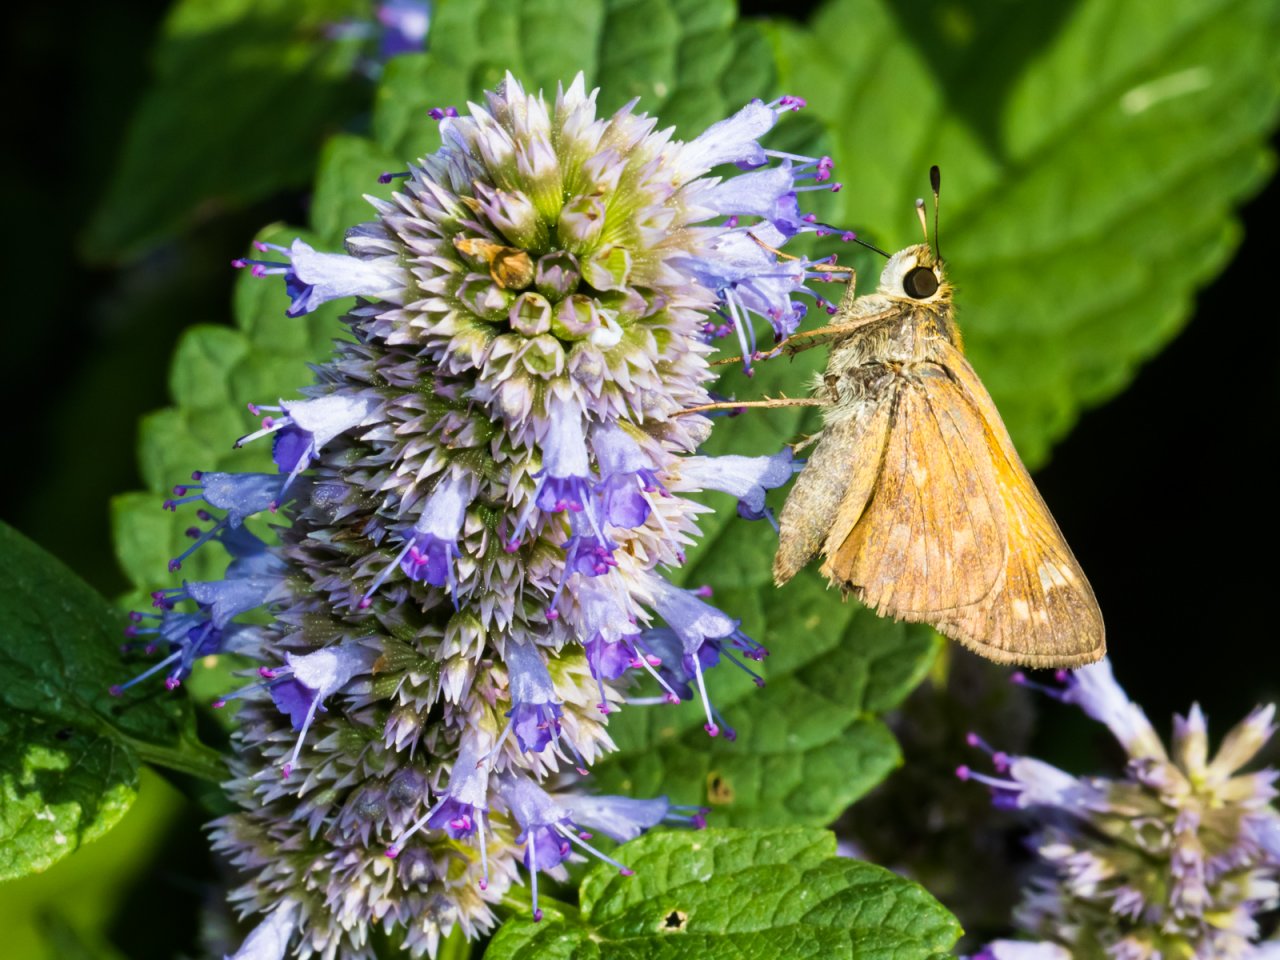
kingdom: Animalia
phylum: Arthropoda
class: Insecta
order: Lepidoptera
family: Hesperiidae
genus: Atalopedes
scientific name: Atalopedes campestris
